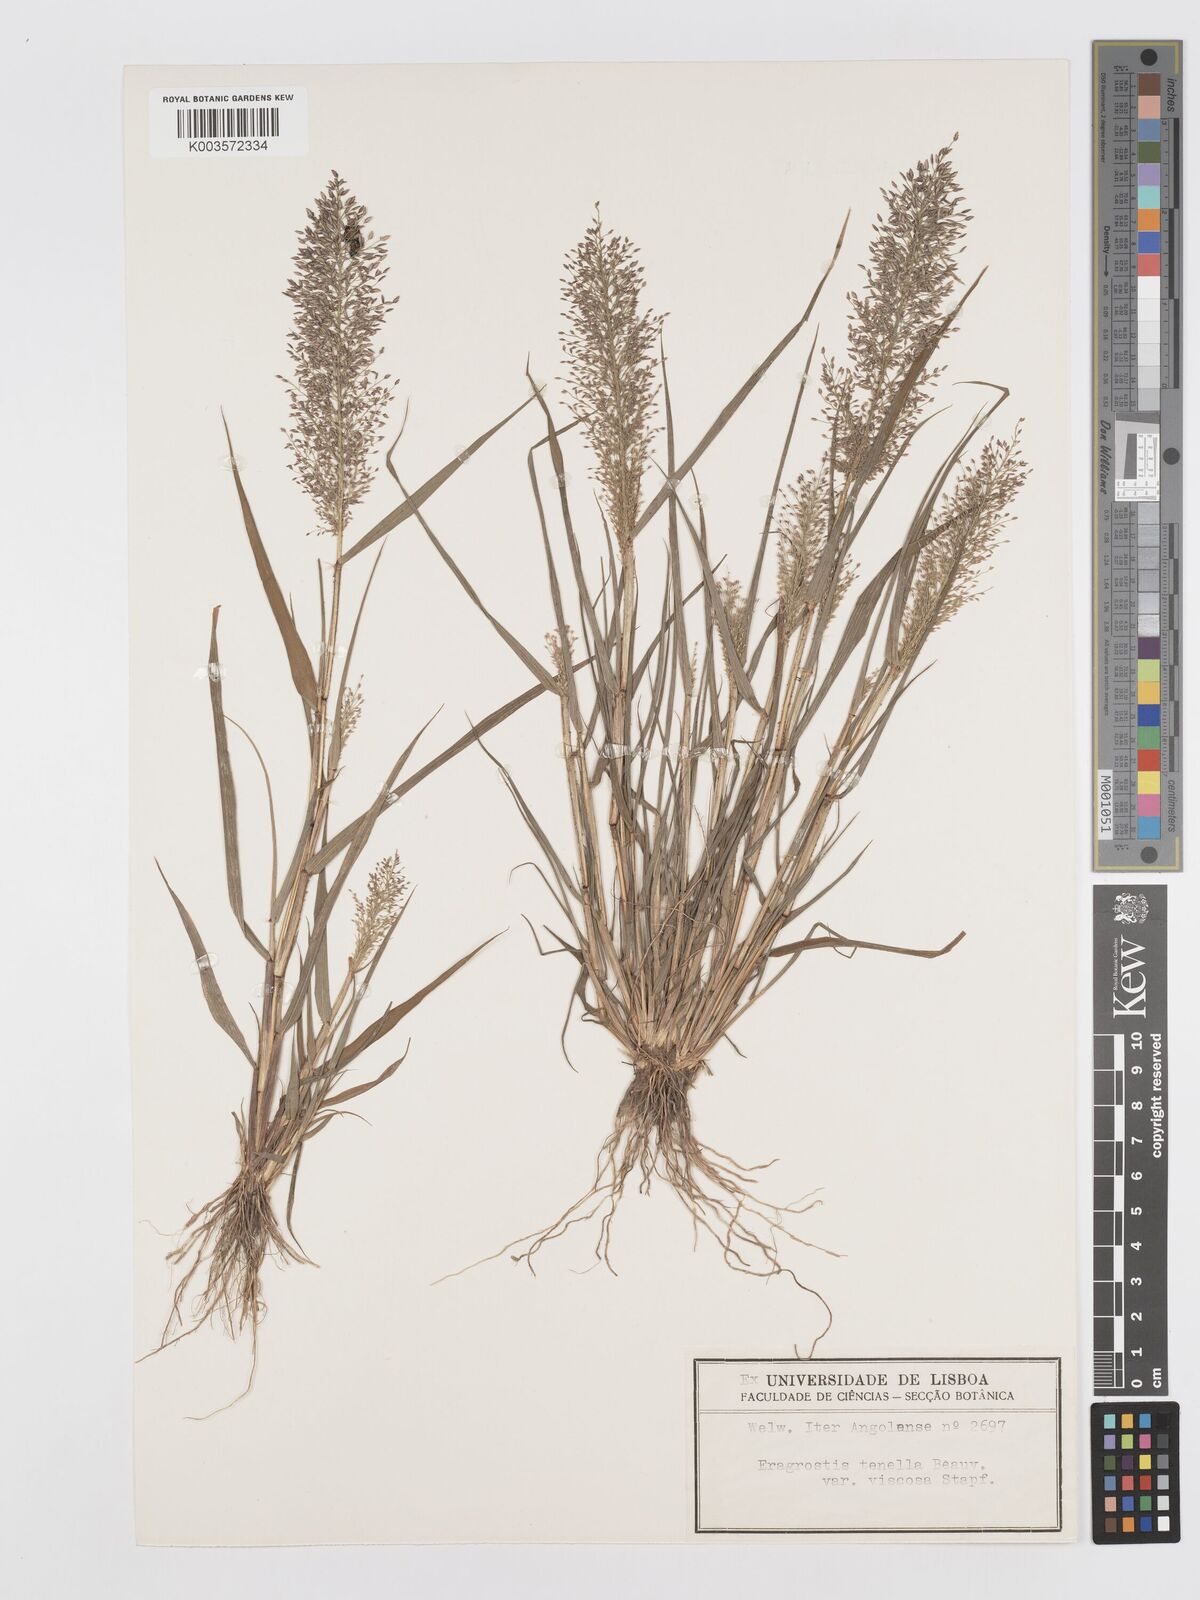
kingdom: Plantae
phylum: Tracheophyta
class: Liliopsida
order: Poales
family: Poaceae
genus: Eragrostis
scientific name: Eragrostis
